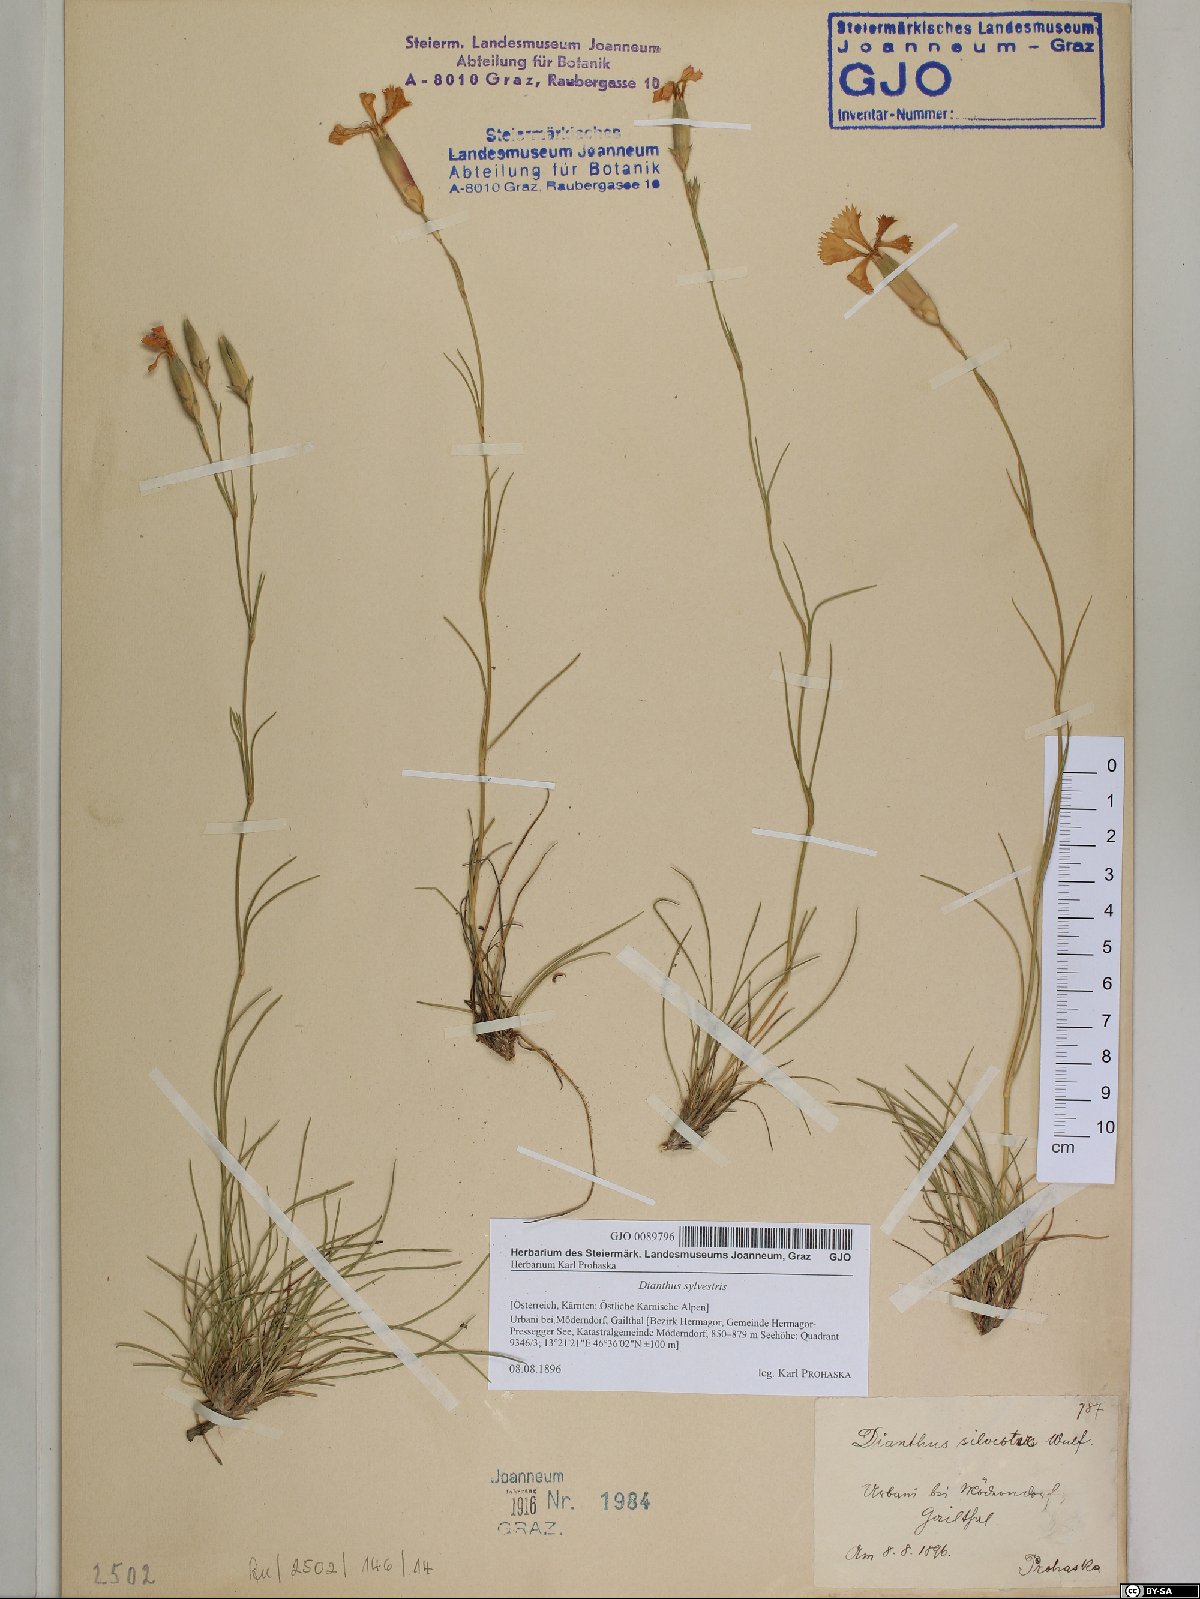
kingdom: Plantae
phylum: Tracheophyta
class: Magnoliopsida
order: Caryophyllales
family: Caryophyllaceae
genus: Dianthus
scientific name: Dianthus sylvestris
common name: Wood pink
